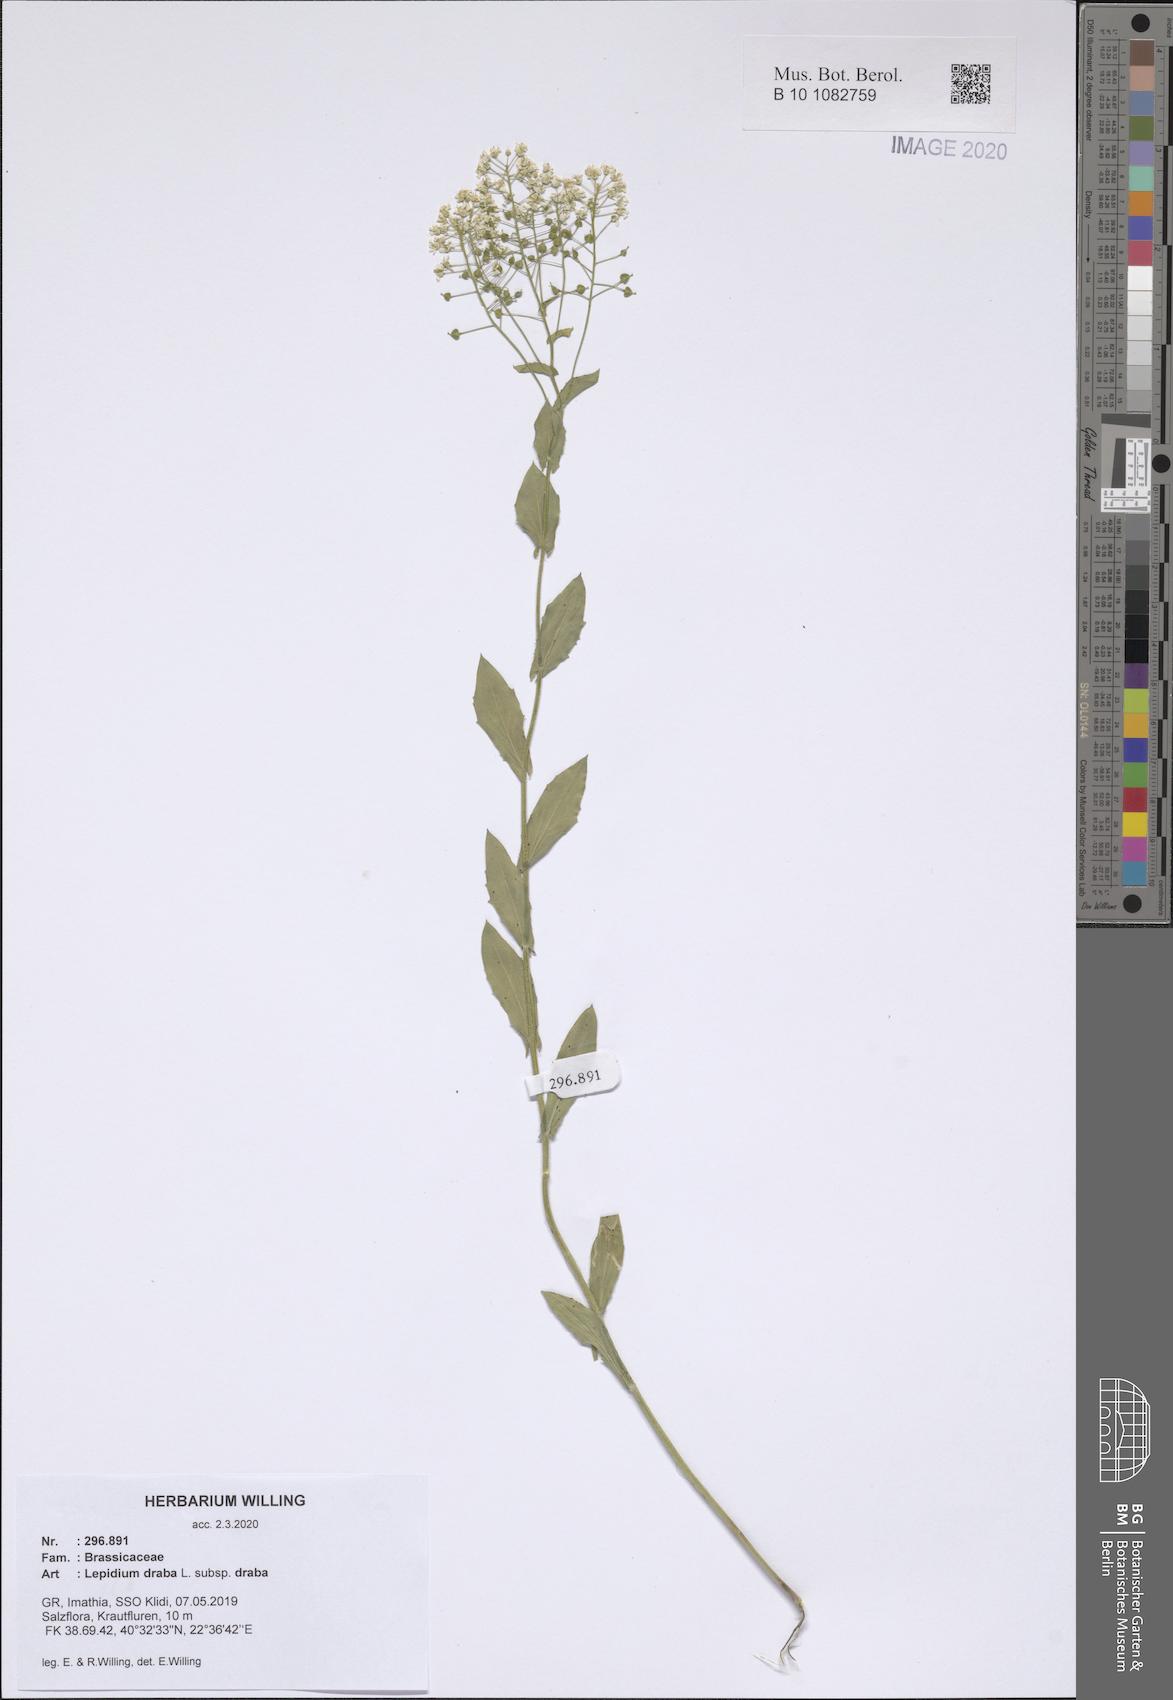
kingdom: Plantae
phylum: Tracheophyta
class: Magnoliopsida
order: Brassicales
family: Brassicaceae
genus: Lepidium
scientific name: Lepidium draba
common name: Hoary cress
